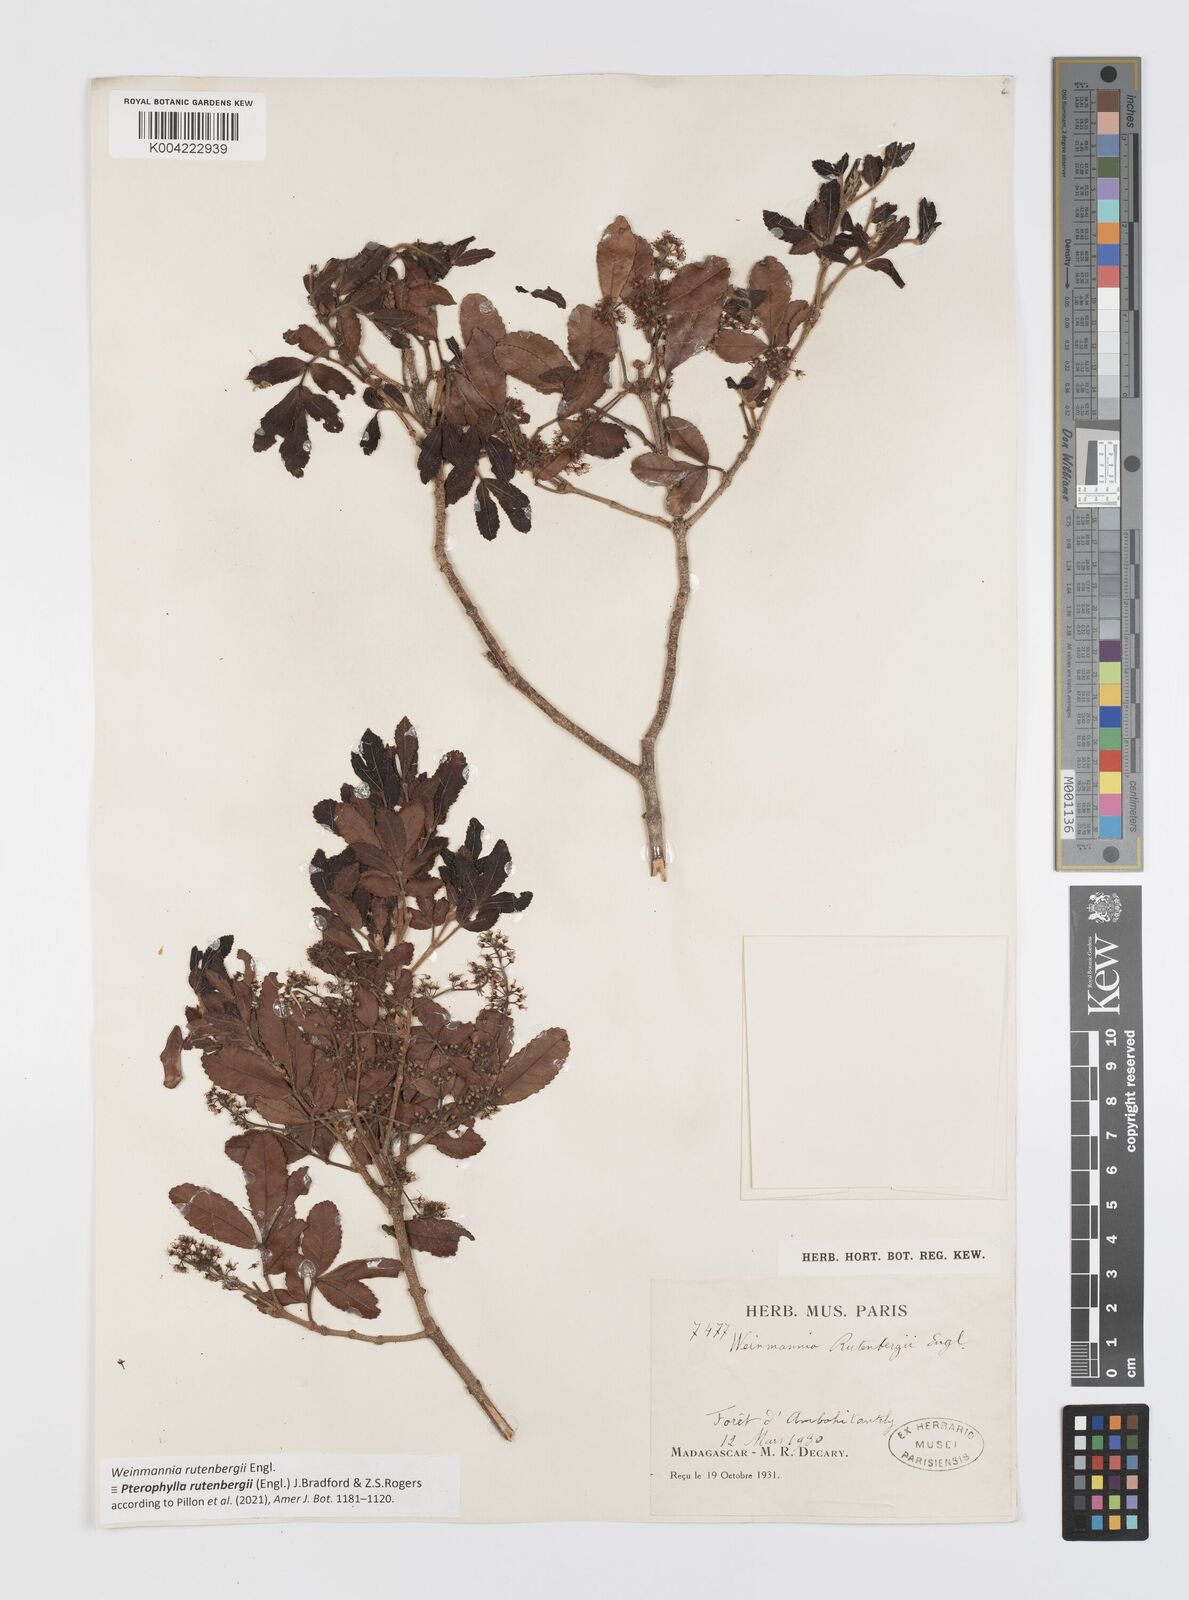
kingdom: Plantae
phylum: Tracheophyta
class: Magnoliopsida
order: Oxalidales
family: Cunoniaceae
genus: Pterophylla
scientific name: Pterophylla rutenbergii
